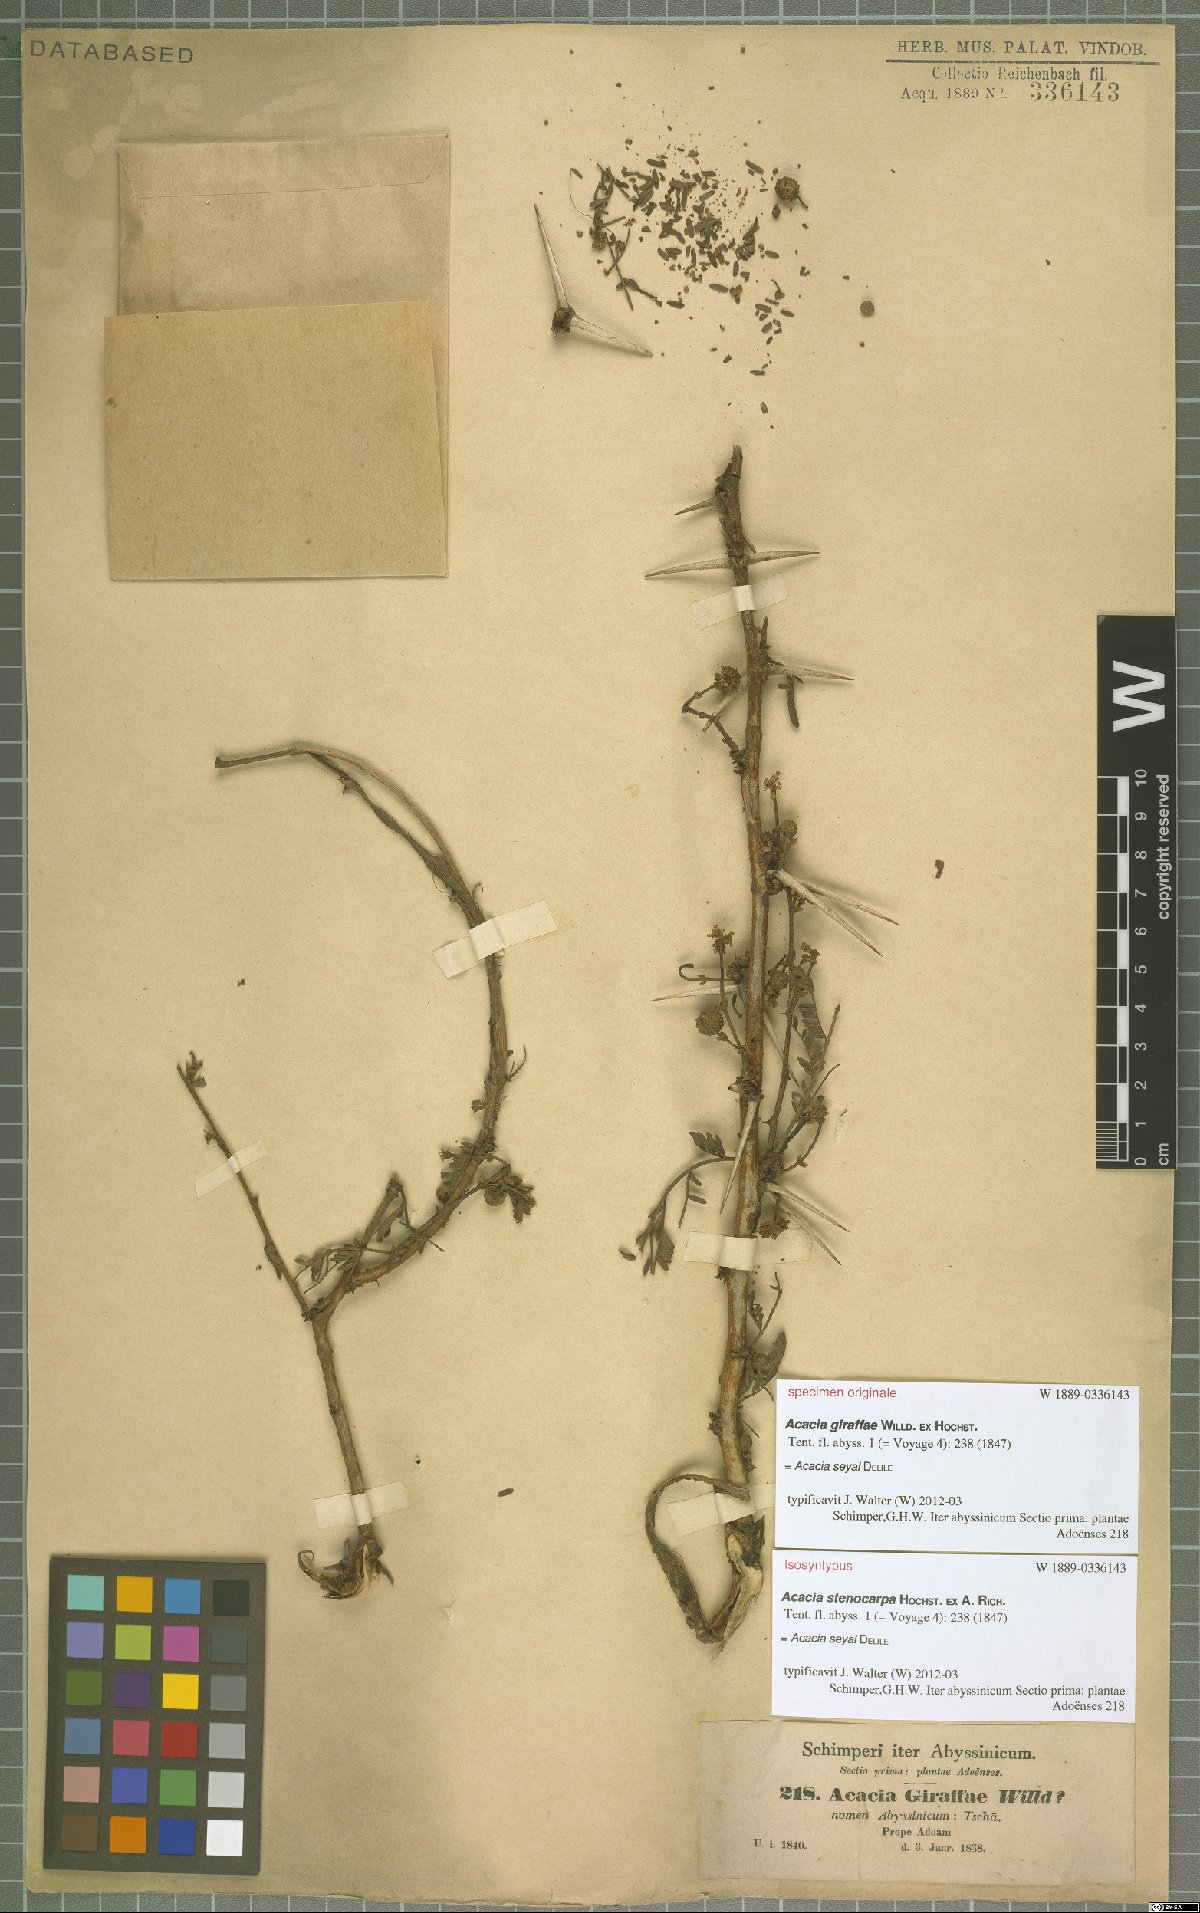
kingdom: Plantae
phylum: Tracheophyta
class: Magnoliopsida
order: Fabales
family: Fabaceae
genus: Vachellia
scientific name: Vachellia seyal
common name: Thirtythorn
